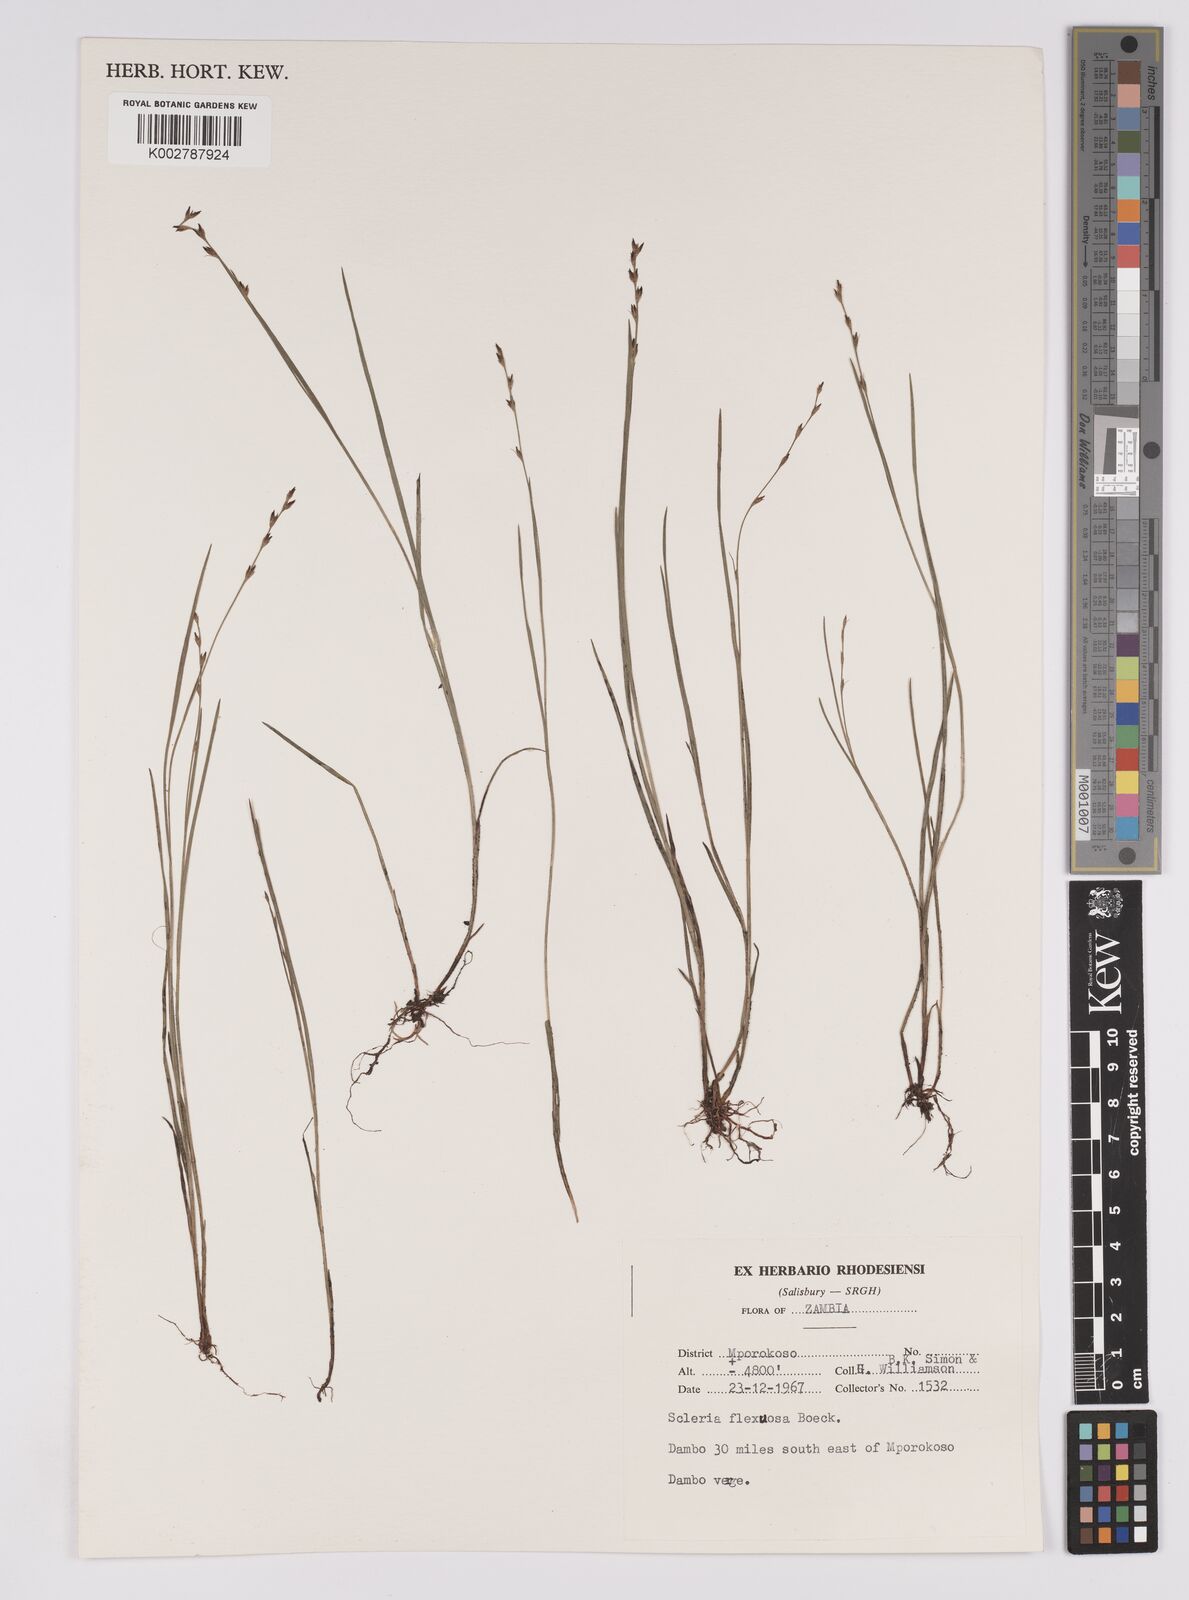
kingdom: Plantae
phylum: Tracheophyta
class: Liliopsida
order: Poales
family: Cyperaceae
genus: Scleria
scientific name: Scleria lateritica
